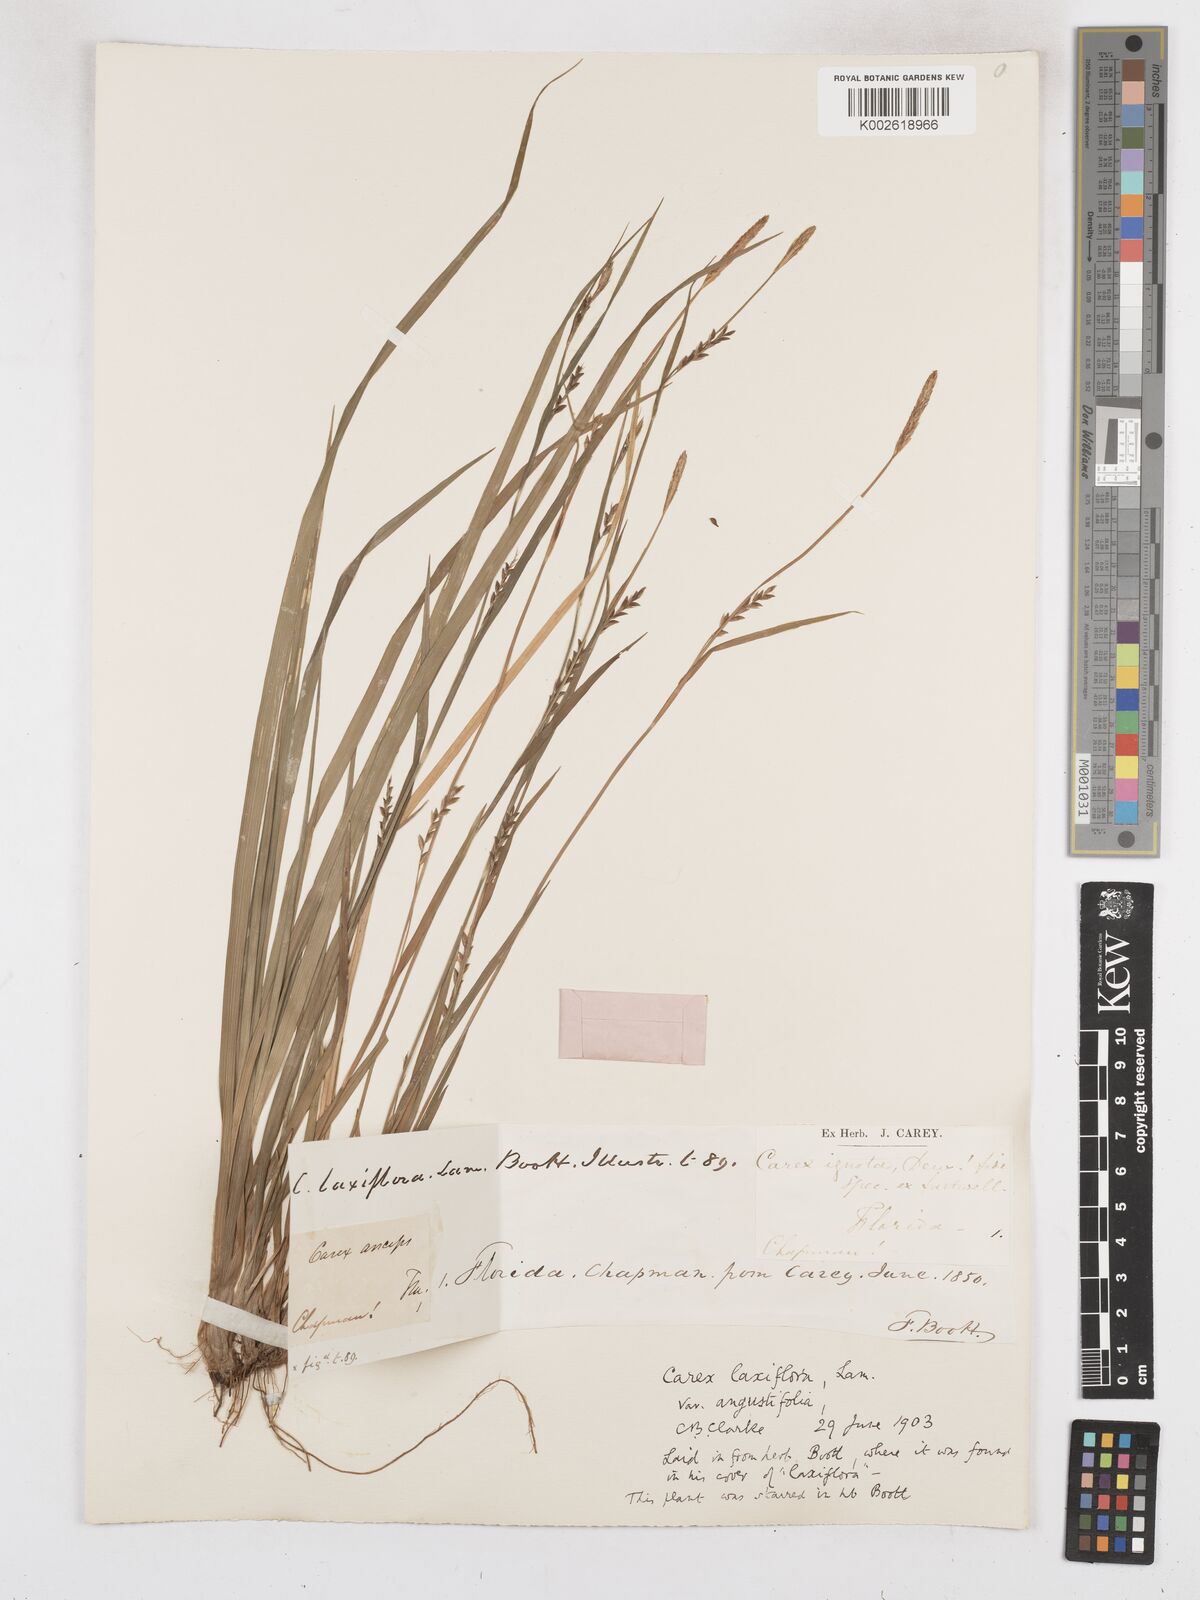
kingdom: Plantae
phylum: Tracheophyta
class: Liliopsida
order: Poales
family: Cyperaceae
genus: Carex
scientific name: Carex laxiflora
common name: Beech wood sedge
